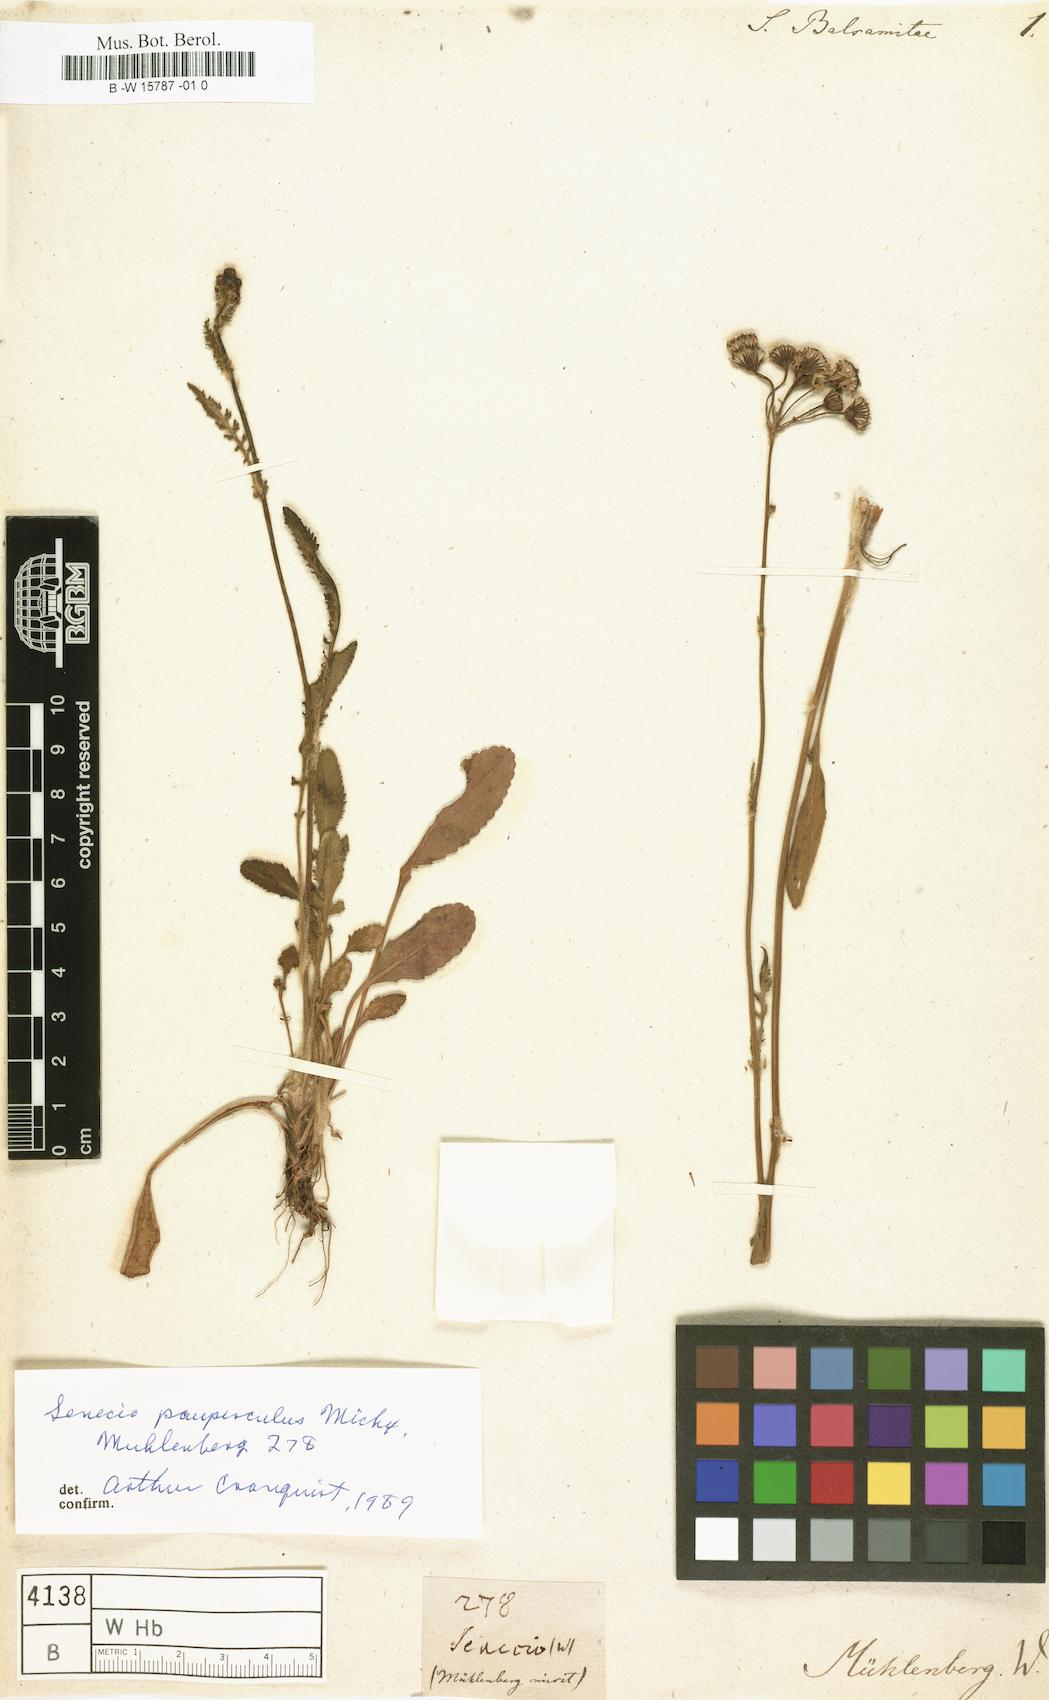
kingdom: Plantae
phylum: Tracheophyta
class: Magnoliopsida
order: Asterales
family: Asteraceae
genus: Senecio
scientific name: Senecio balsamitae
